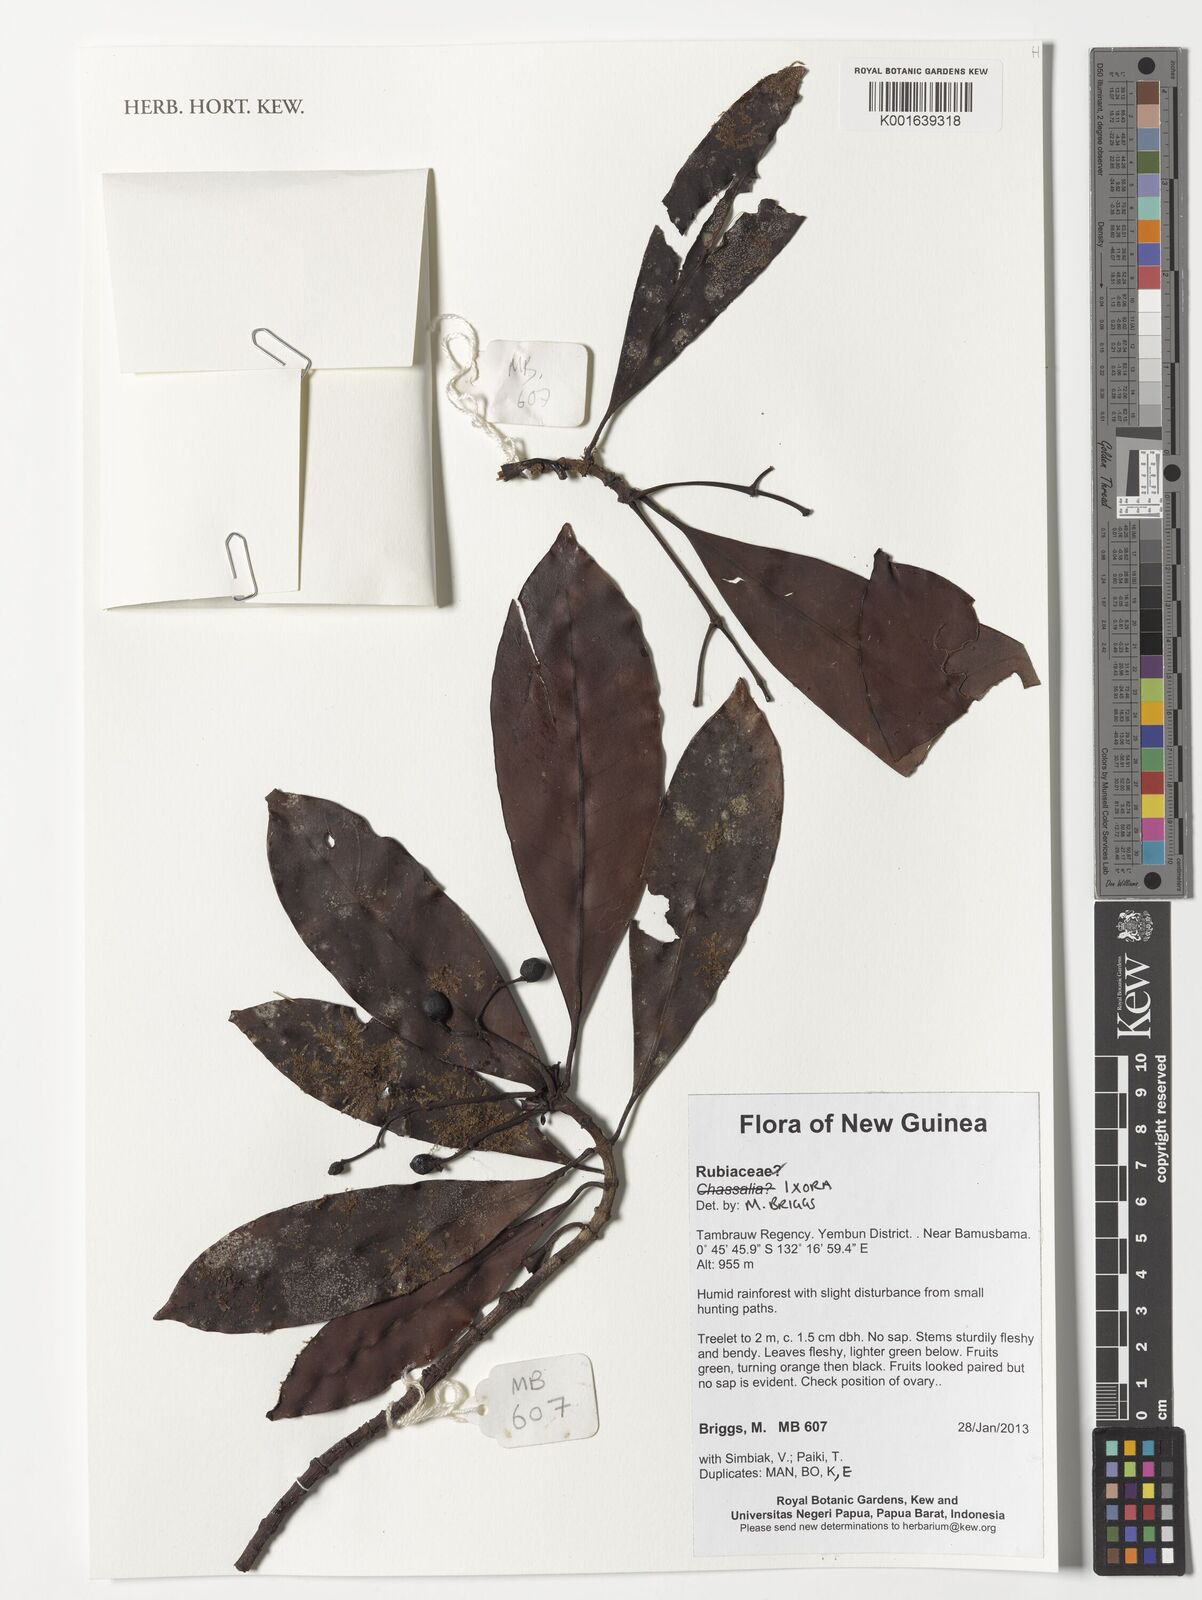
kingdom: Plantae
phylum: Tracheophyta
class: Magnoliopsida
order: Gentianales
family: Rubiaceae
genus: Ixora
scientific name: Ixora
